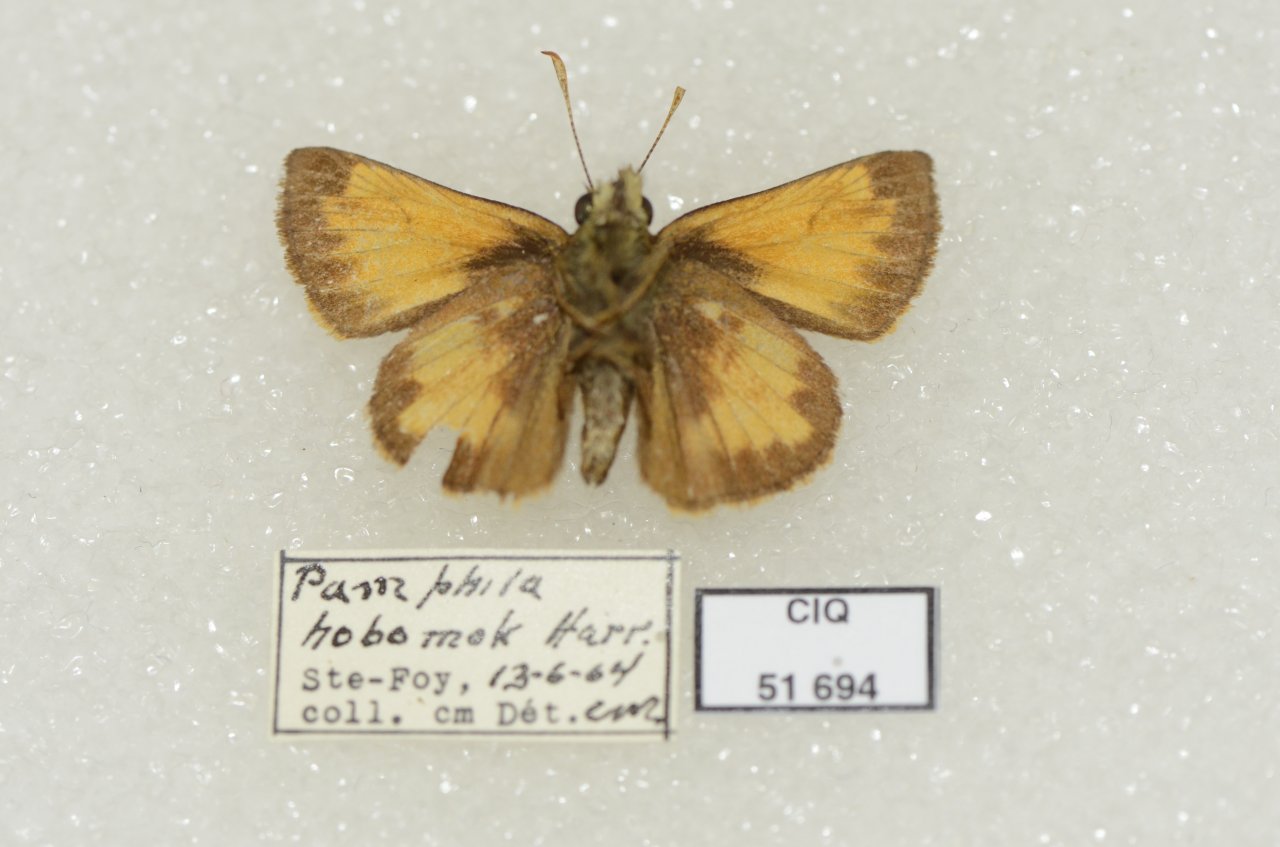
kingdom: Animalia
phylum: Arthropoda
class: Insecta
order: Lepidoptera
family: Hesperiidae
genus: Lon
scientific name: Lon hobomok
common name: Hobomok Skipper
